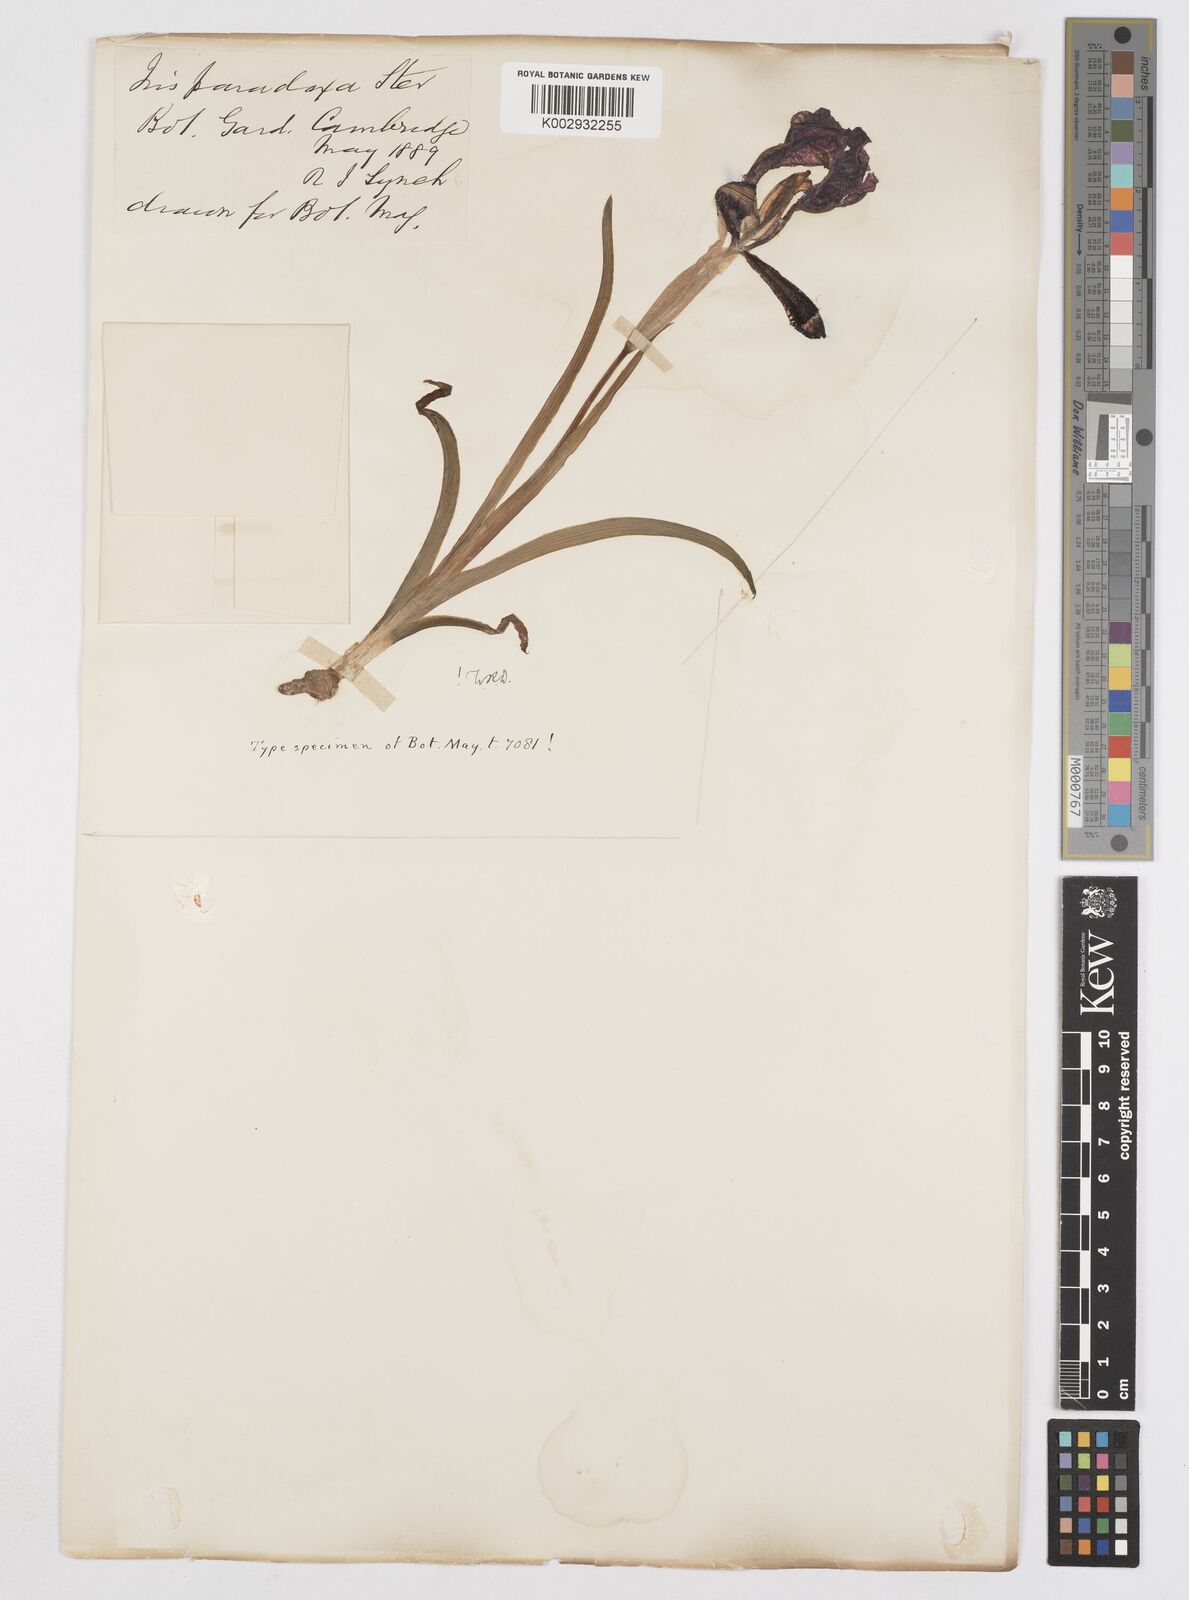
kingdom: Plantae
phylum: Tracheophyta
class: Liliopsida
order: Asparagales
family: Iridaceae
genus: Iris
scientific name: Iris paradoxa
